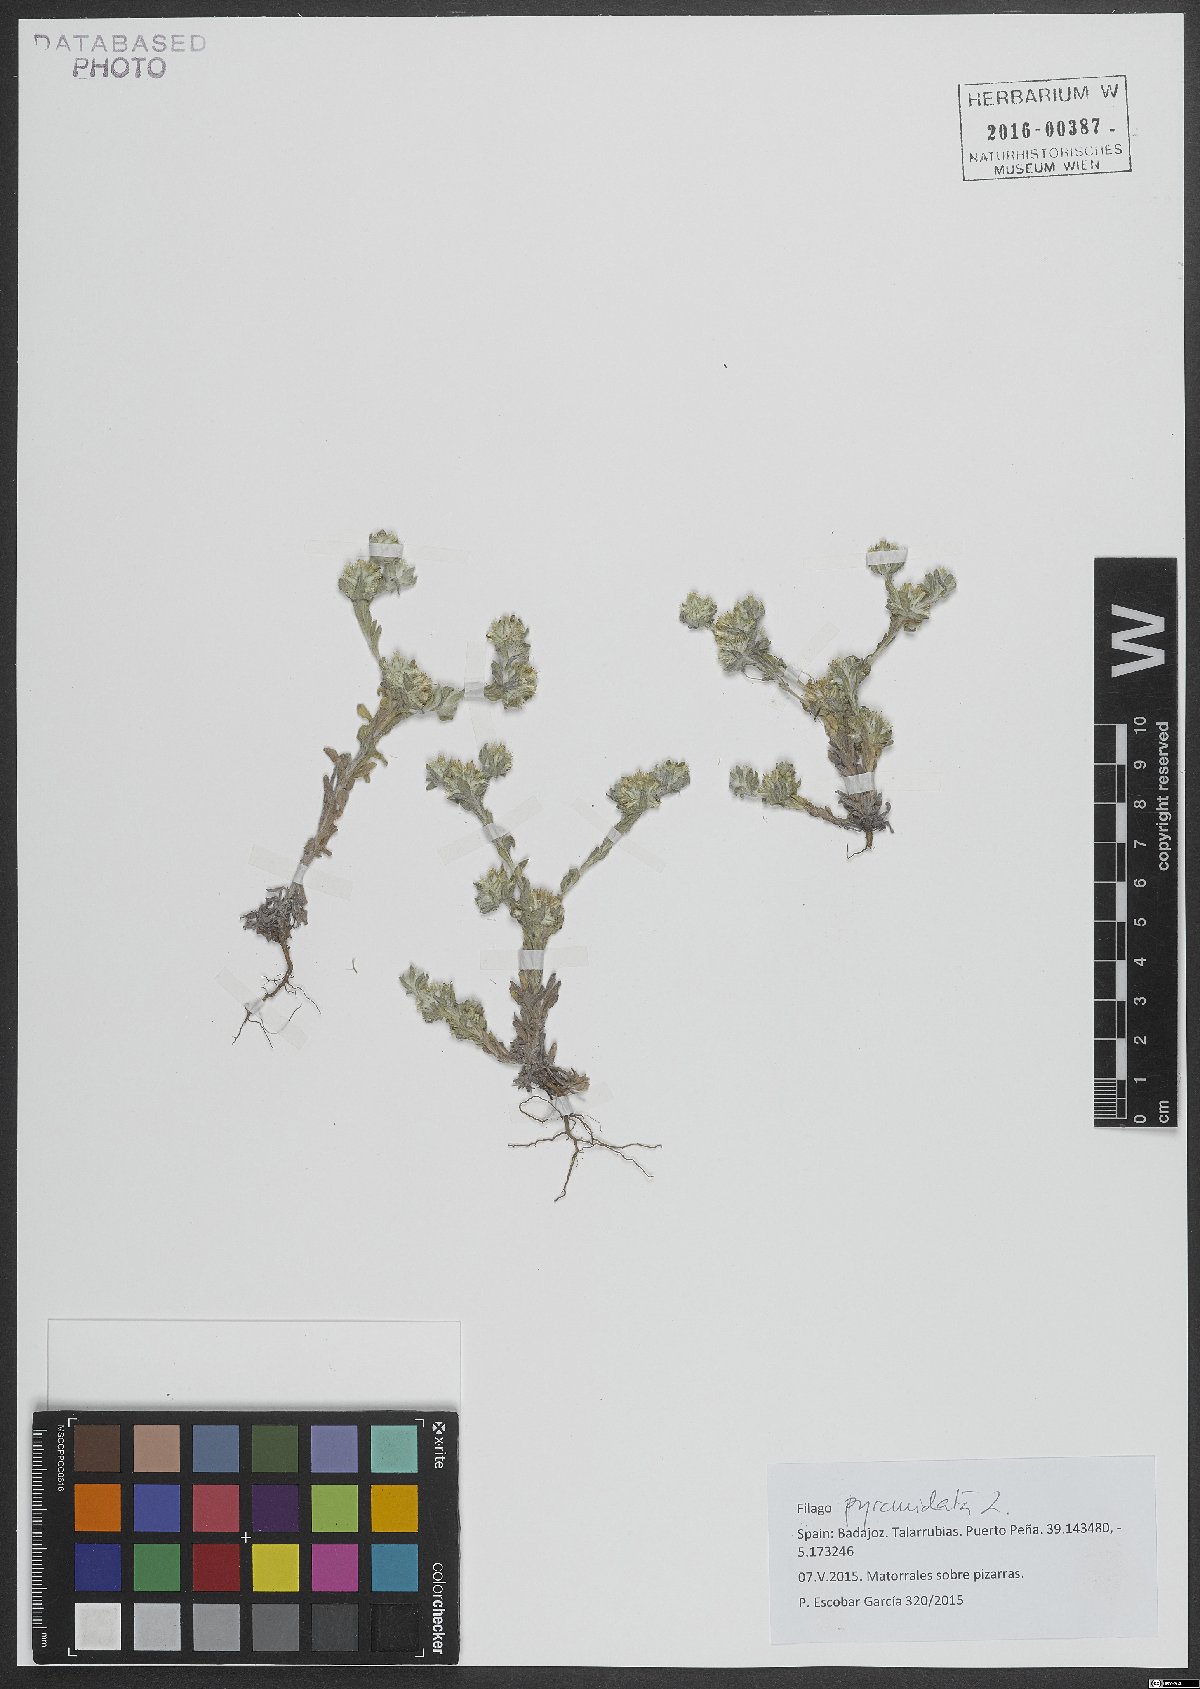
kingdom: Plantae
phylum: Tracheophyta
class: Magnoliopsida
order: Asterales
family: Asteraceae
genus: Filago
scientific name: Filago pyramidata
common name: Broad-leaved cudweed
